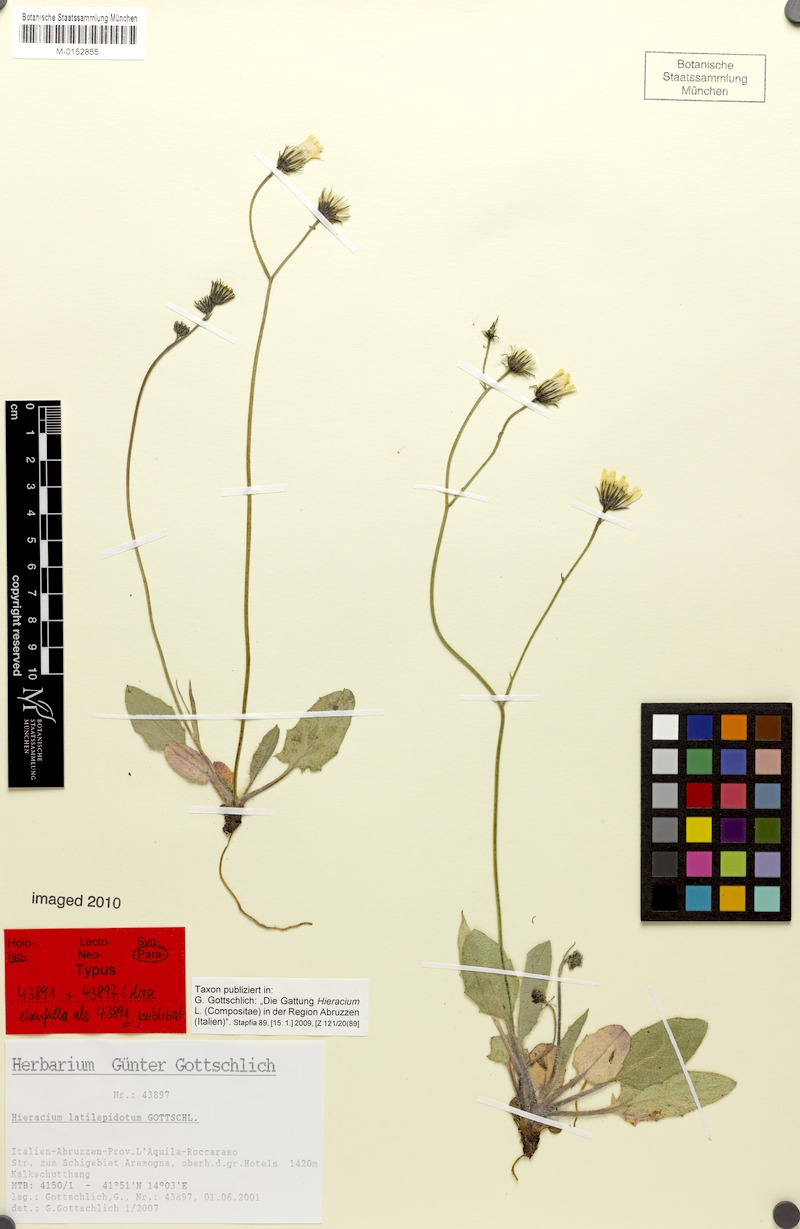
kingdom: Plantae
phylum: Tracheophyta
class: Magnoliopsida
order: Asterales
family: Asteraceae
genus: Hieracium
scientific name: Hieracium latilepidotum
